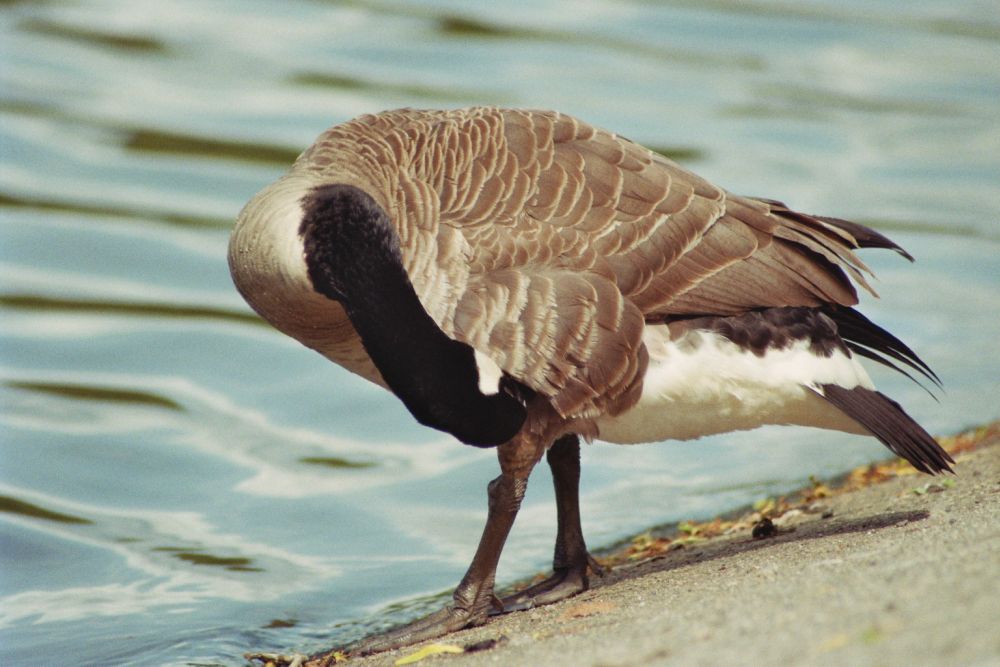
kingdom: Animalia
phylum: Chordata
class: Aves
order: Anseriformes
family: Anatidae
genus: Branta
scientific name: Branta canadensis
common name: Canada goose
